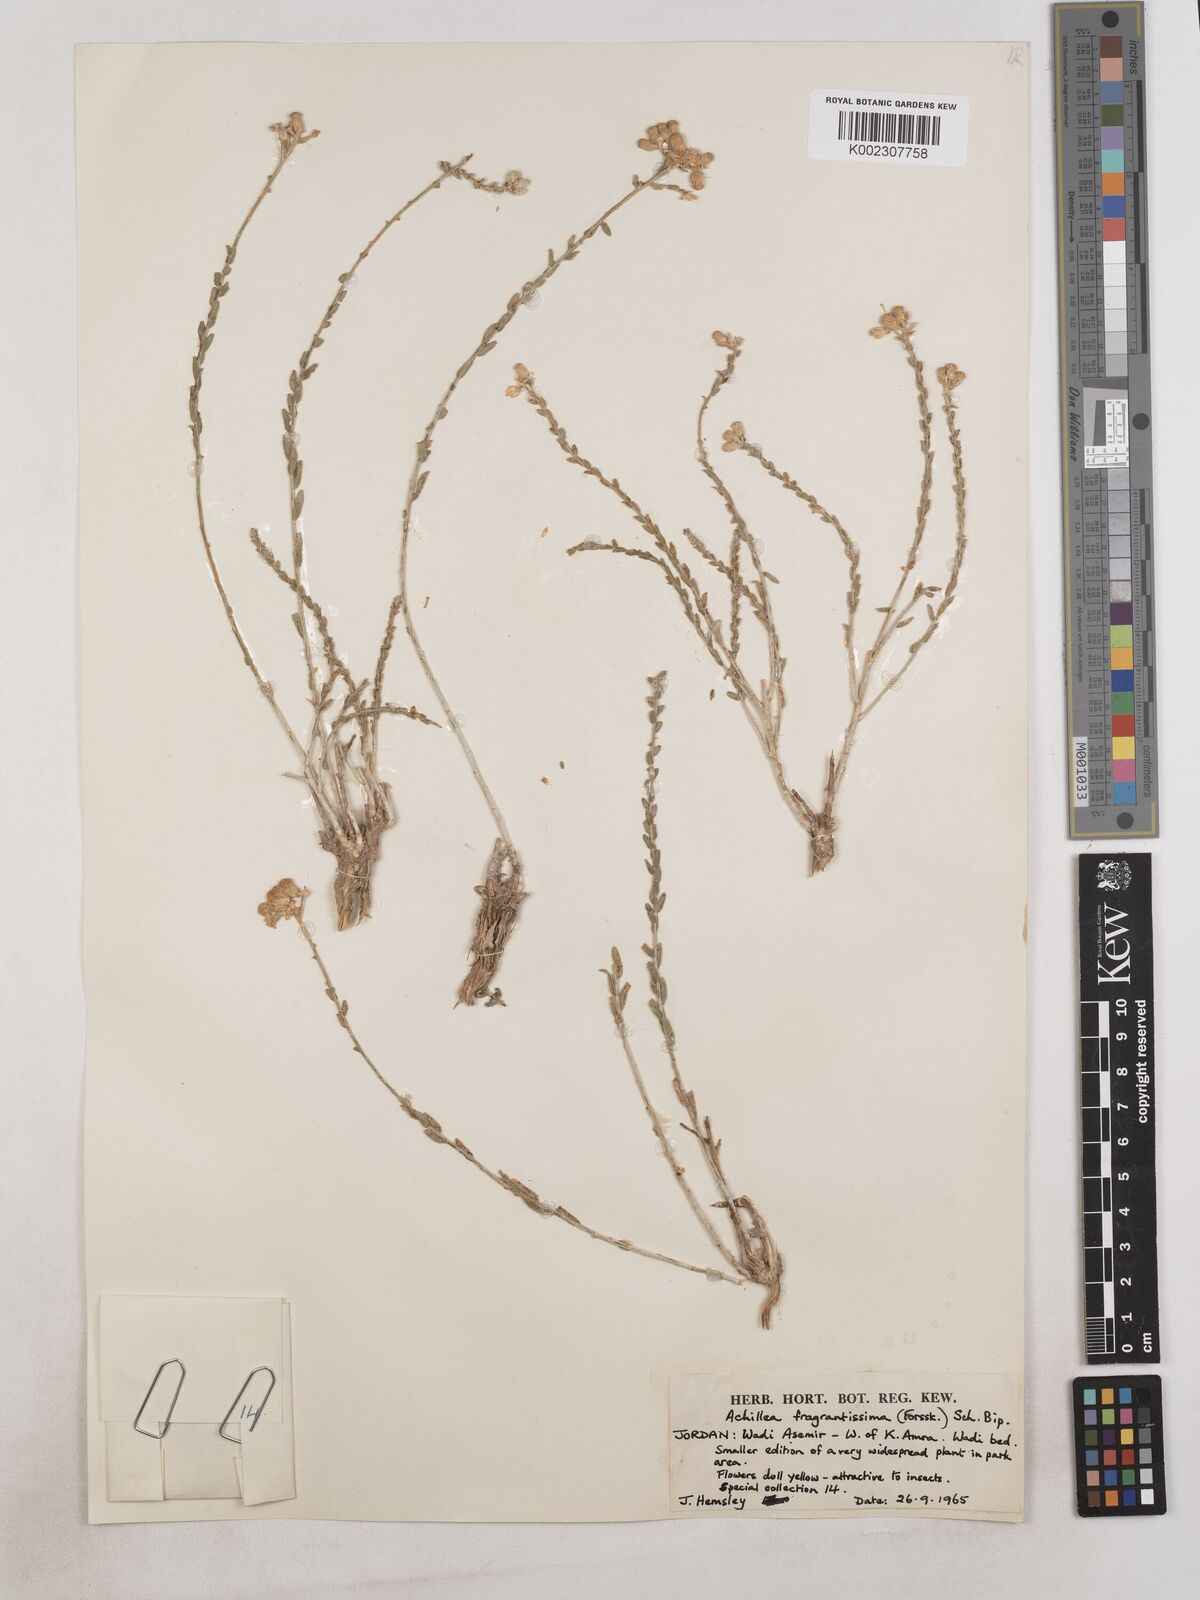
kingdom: Plantae
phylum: Tracheophyta
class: Magnoliopsida
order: Asterales
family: Asteraceae
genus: Achillea
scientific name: Achillea fragrantissima
